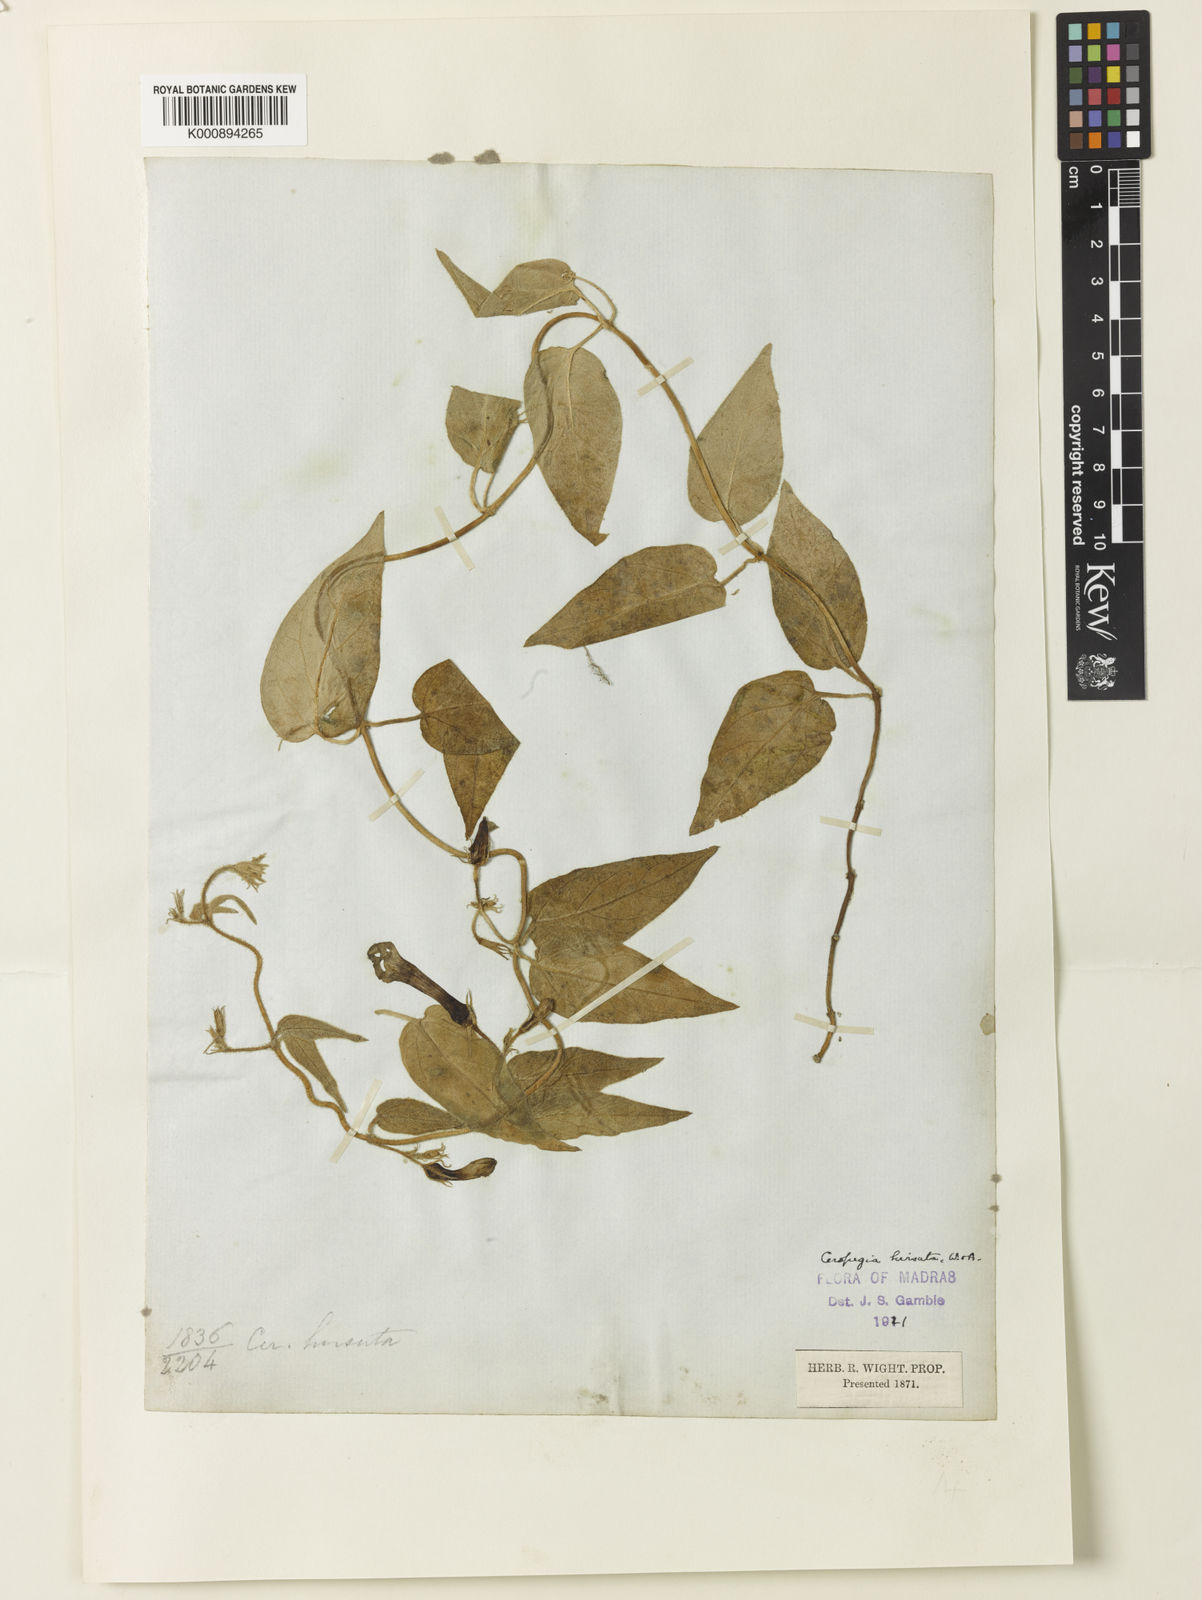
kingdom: Plantae
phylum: Tracheophyta
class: Magnoliopsida
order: Gentianales
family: Apocynaceae
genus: Ceropegia
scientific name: Ceropegia hirsuta
